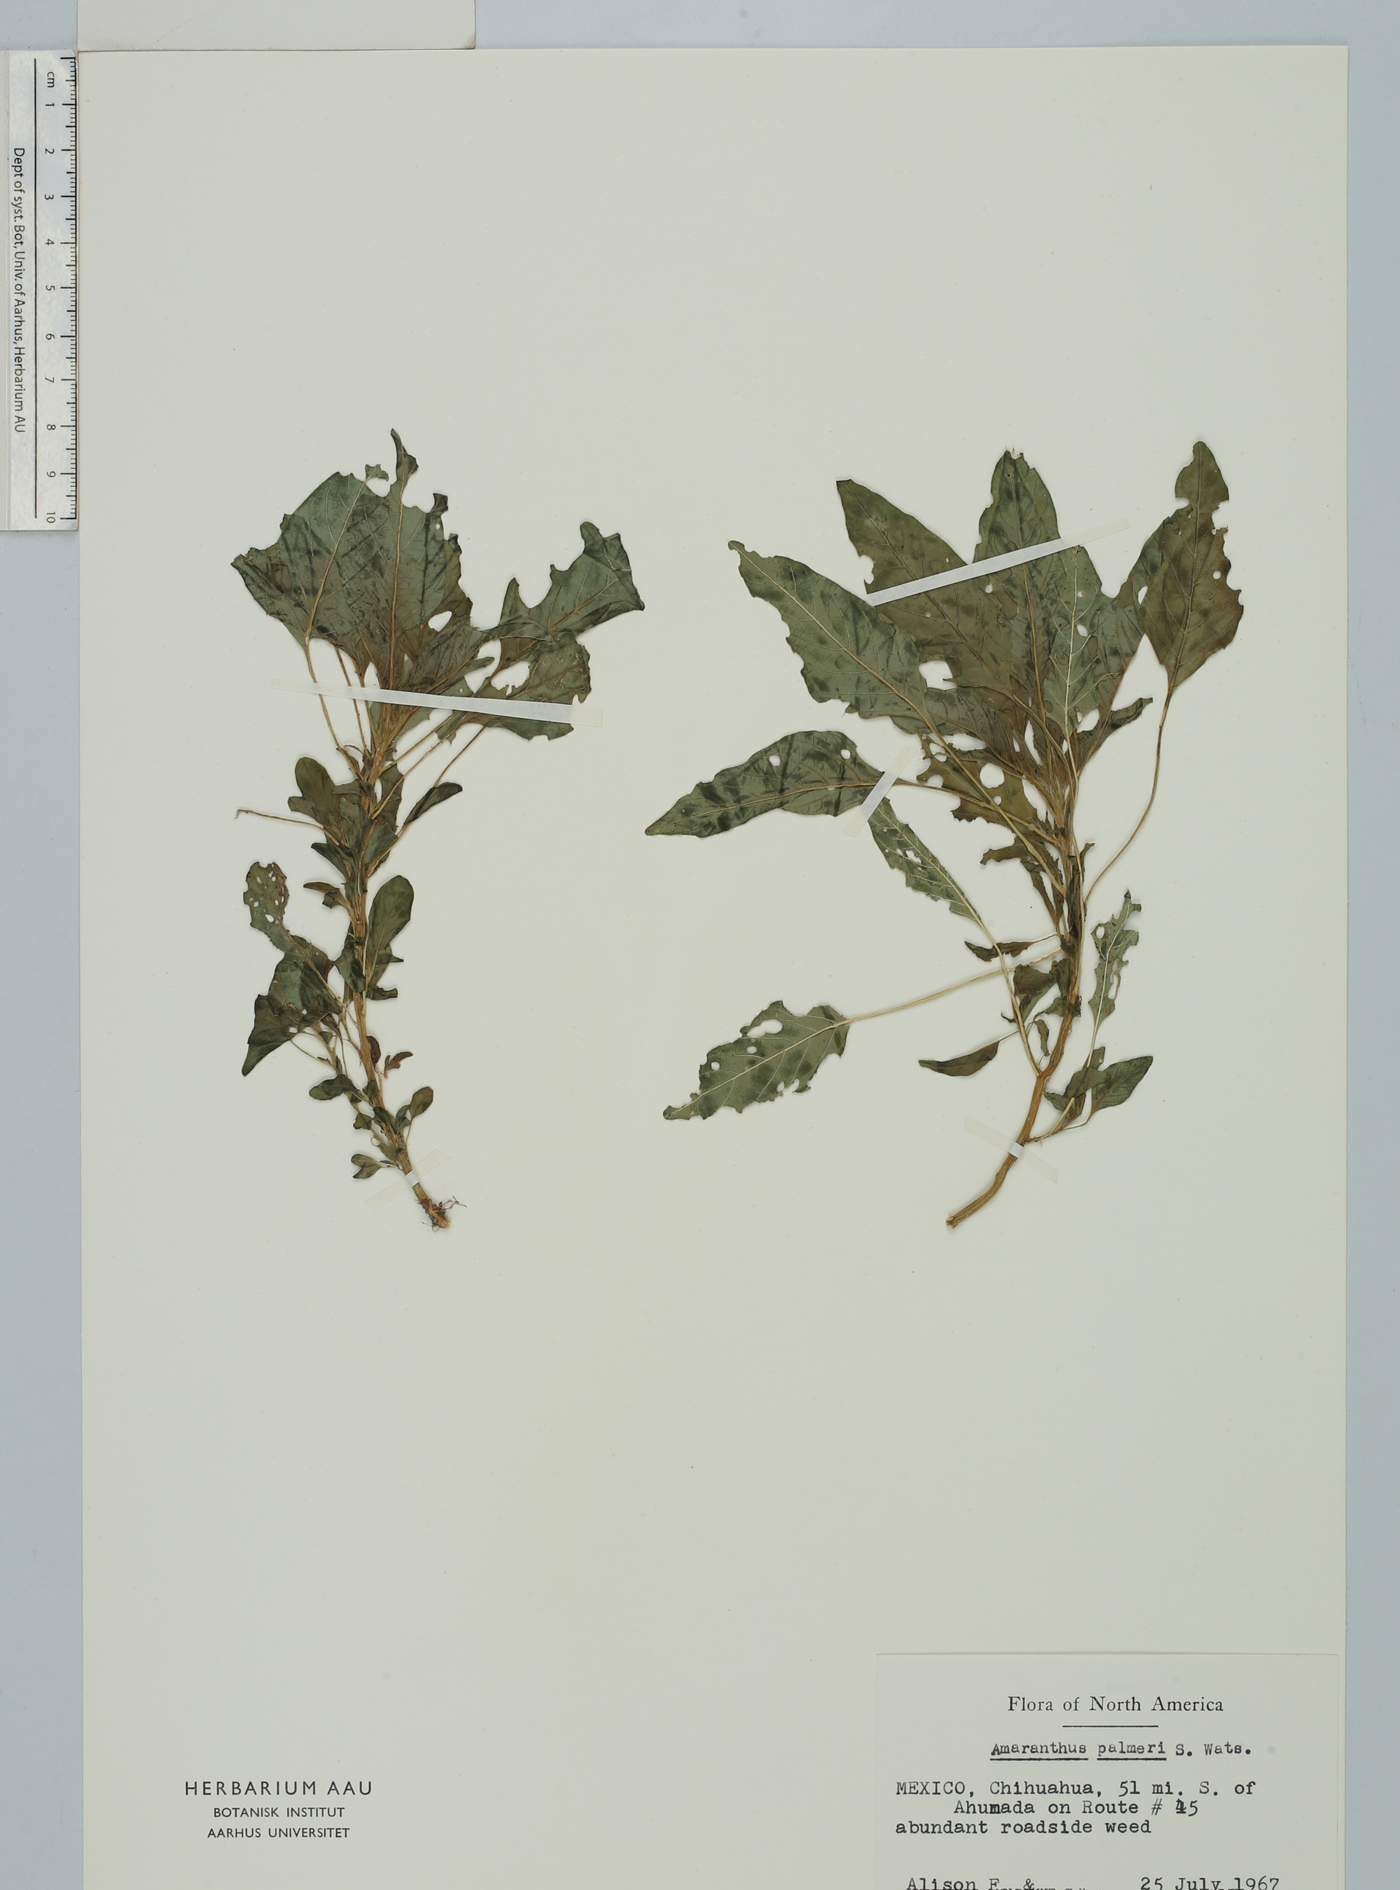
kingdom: Plantae
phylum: Tracheophyta
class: Magnoliopsida
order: Caryophyllales
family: Amaranthaceae
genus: Amaranthus
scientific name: Amaranthus palmeri
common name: Dioecious amaranth
